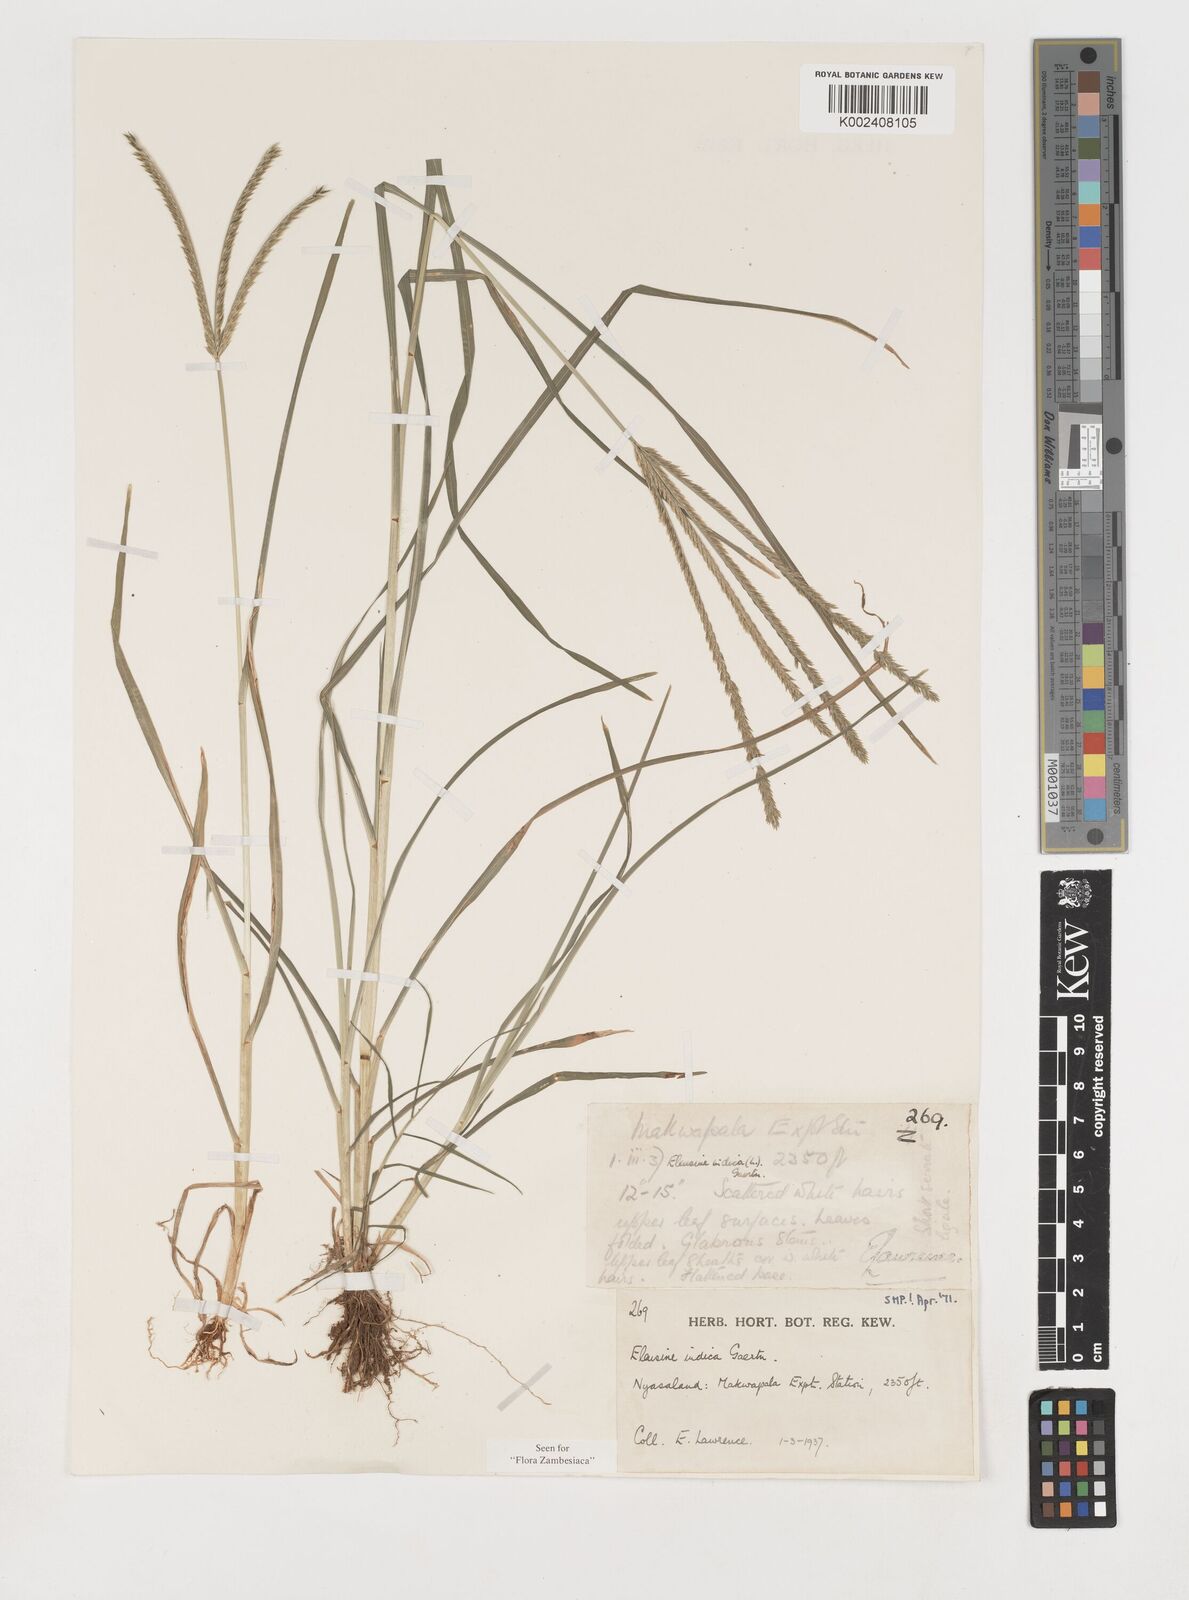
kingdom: Plantae
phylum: Tracheophyta
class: Liliopsida
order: Poales
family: Poaceae
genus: Eleusine
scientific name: Eleusine africana
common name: Wild african finger millet
